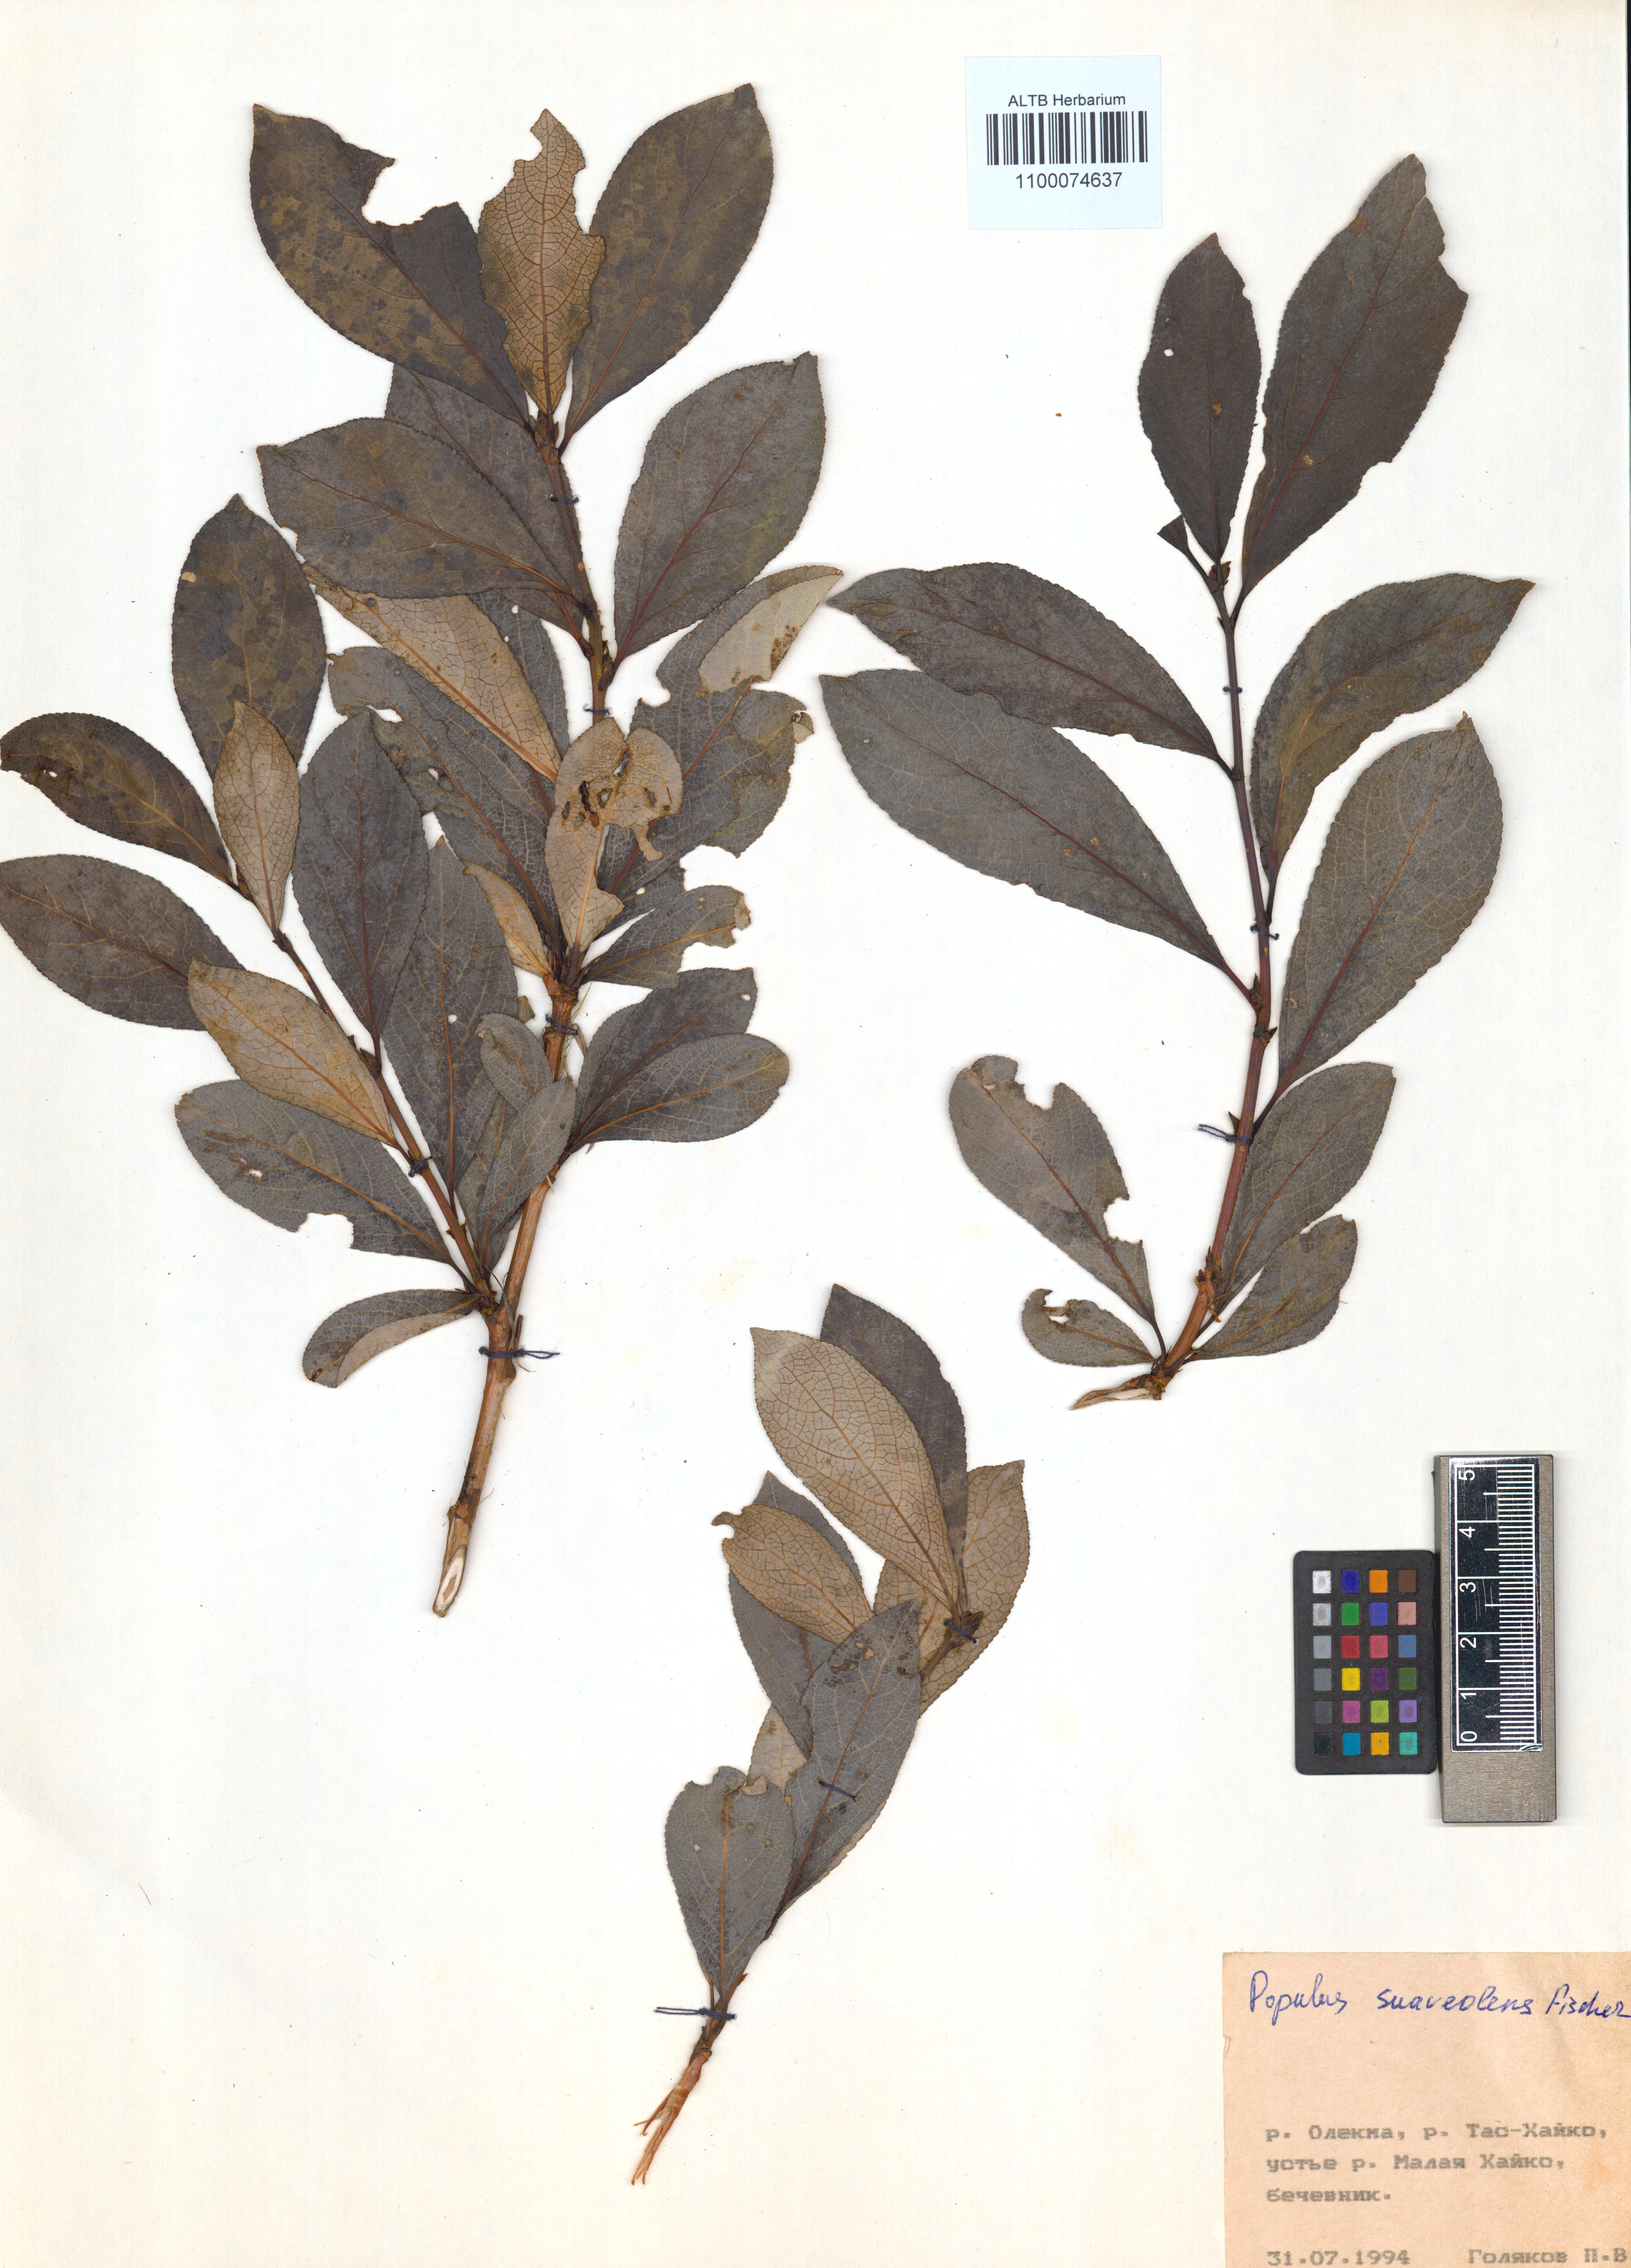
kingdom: Plantae
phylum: Tracheophyta
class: Magnoliopsida
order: Malpighiales
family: Salicaceae
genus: Populus
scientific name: Populus suaveolens
